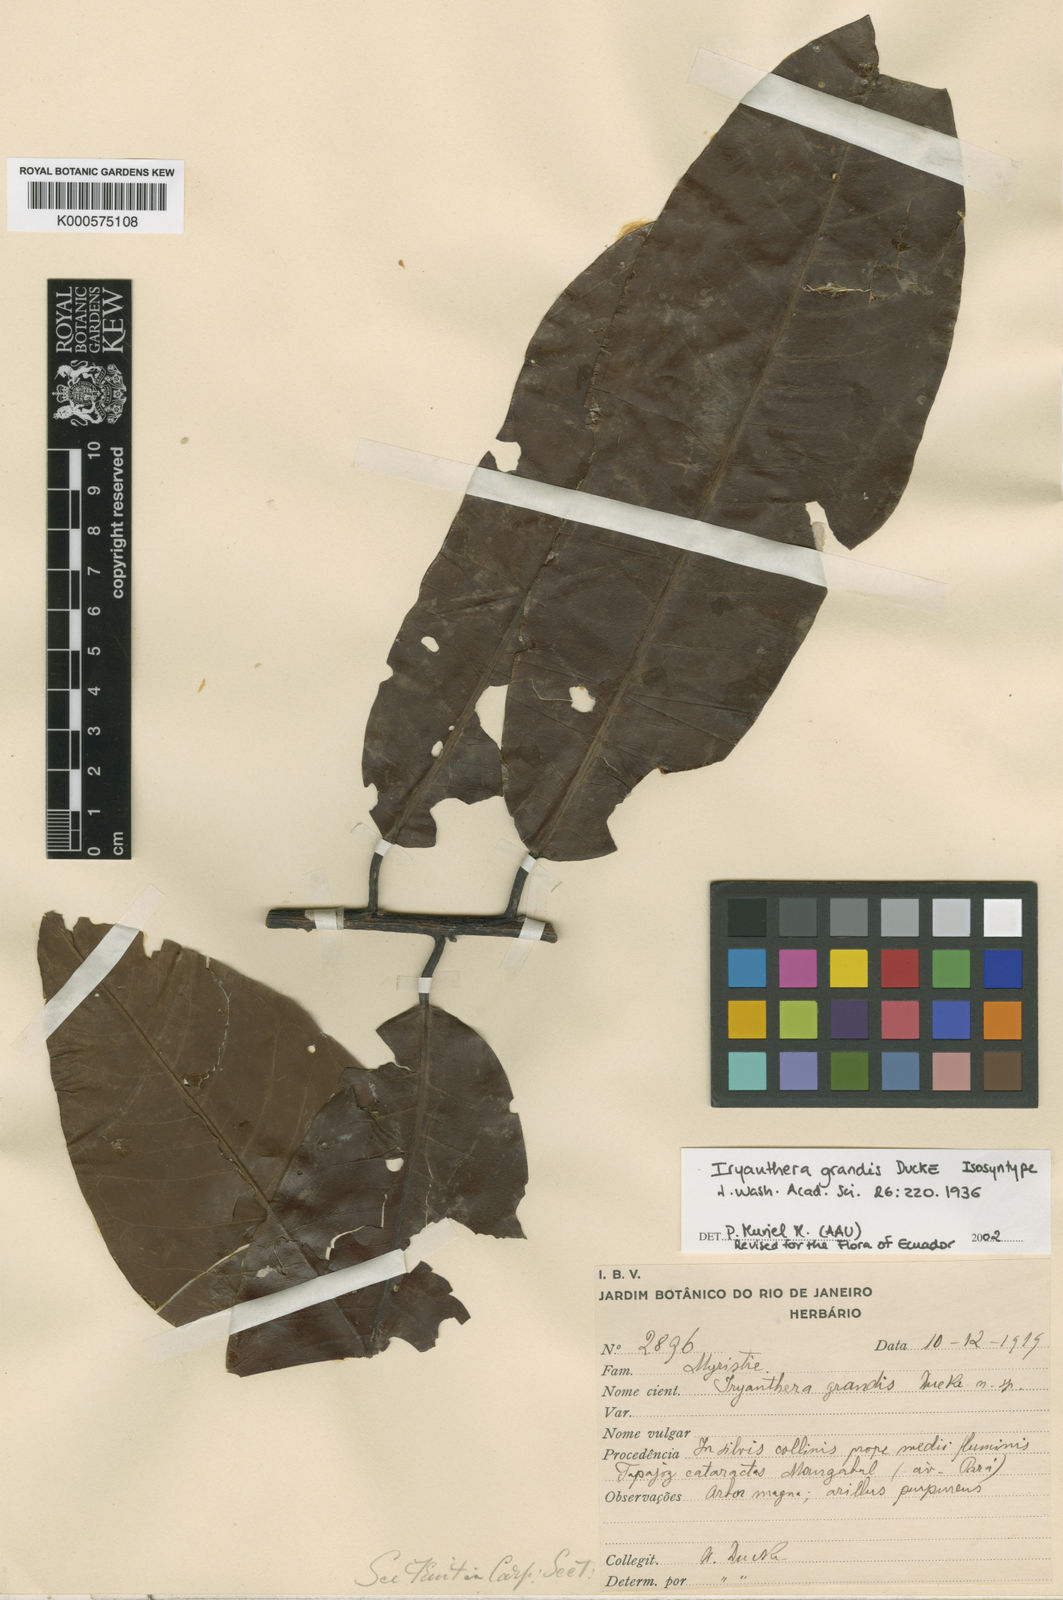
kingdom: Plantae
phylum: Tracheophyta
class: Magnoliopsida
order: Magnoliales
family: Myristicaceae
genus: Iryanthera
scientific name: Iryanthera grandis
